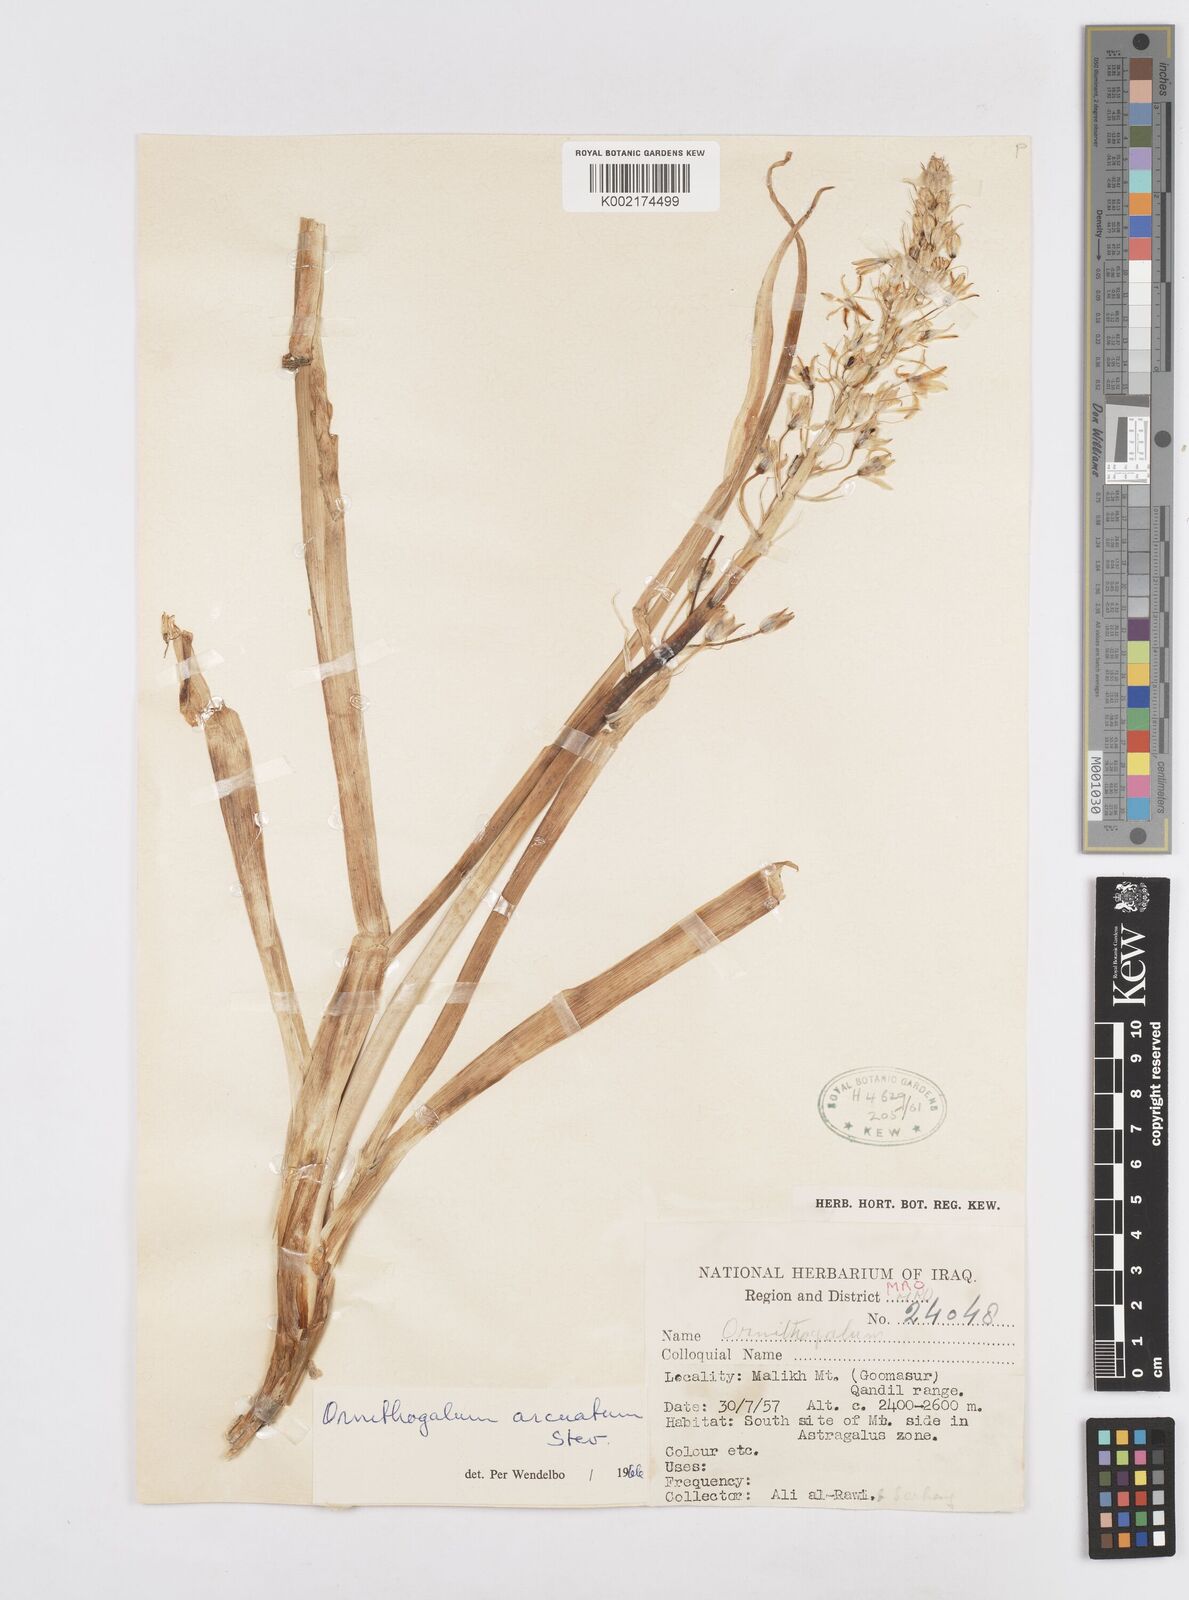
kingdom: Plantae
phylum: Tracheophyta
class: Liliopsida
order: Asparagales
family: Asparagaceae
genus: Ornithogalum
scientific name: Ornithogalum arcuatum
